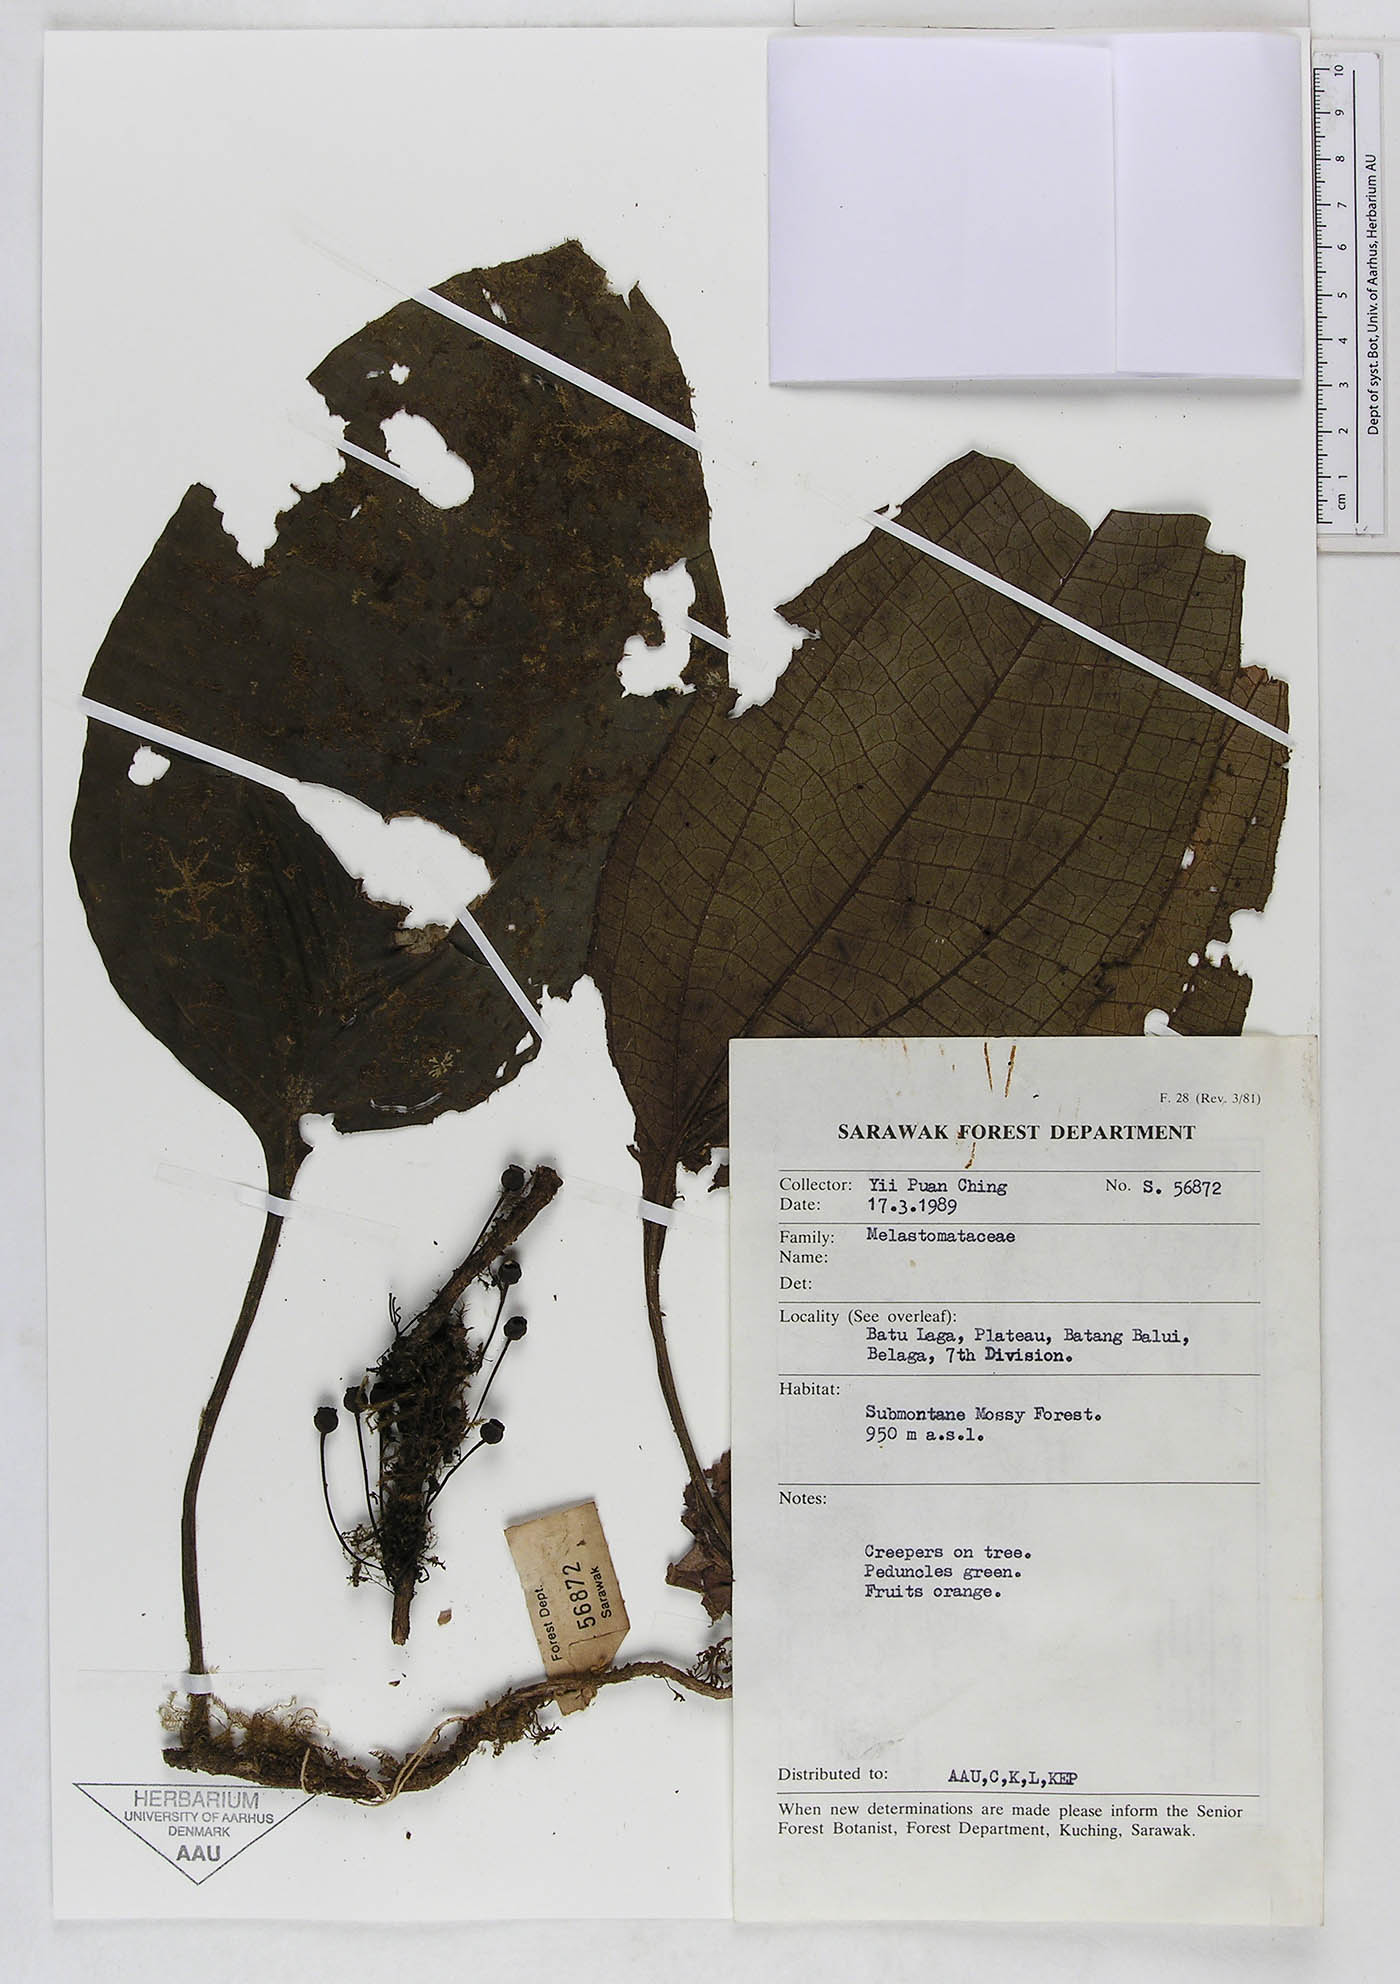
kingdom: Plantae
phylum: Tracheophyta
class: Magnoliopsida
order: Myrtales
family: Melastomataceae
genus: Heteroblemma
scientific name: Heteroblemma decurrens
